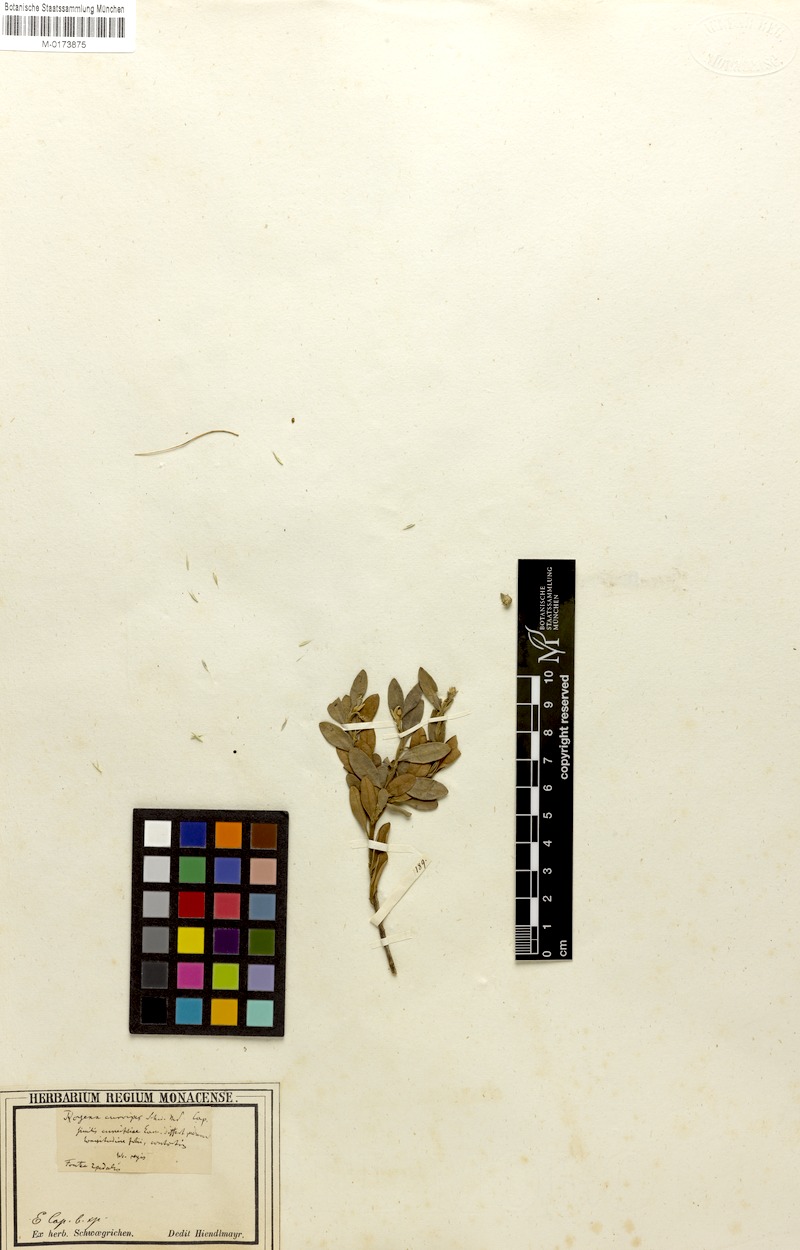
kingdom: Plantae
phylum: Tracheophyta
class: Magnoliopsida
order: Ericales
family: Ebenaceae
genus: Diospyros
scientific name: Diospyros pubescens
